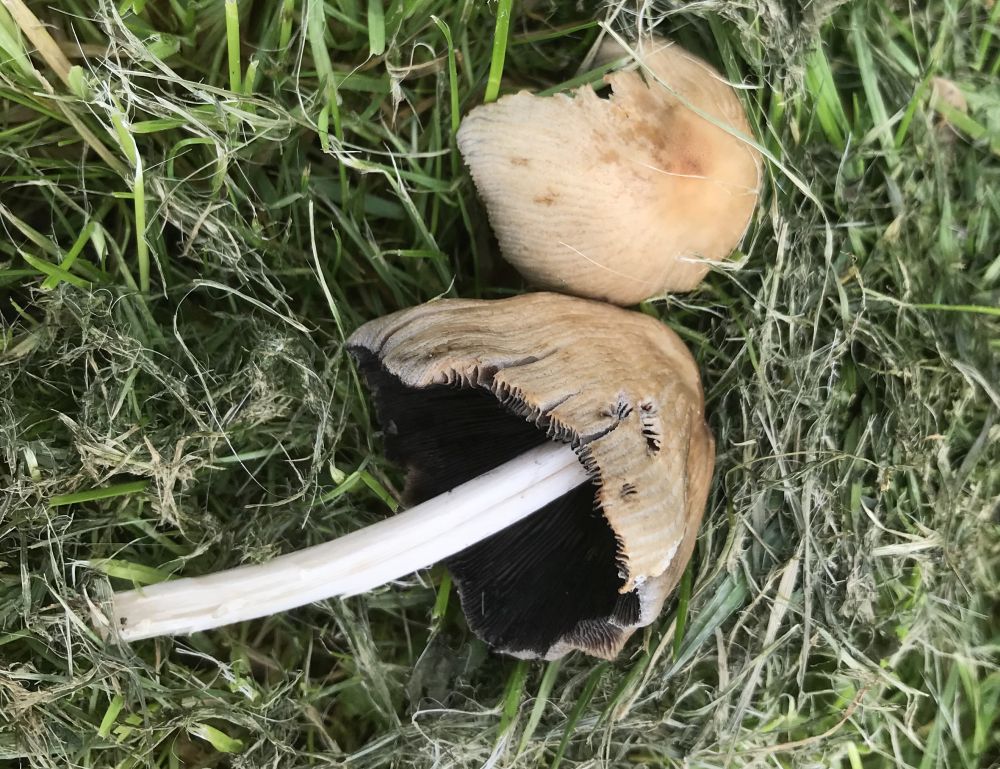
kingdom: Fungi
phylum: Basidiomycota
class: Agaricomycetes
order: Agaricales
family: Psathyrellaceae
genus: Coprinopsis
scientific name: Coprinopsis atramentaria
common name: almindelig blækhat
